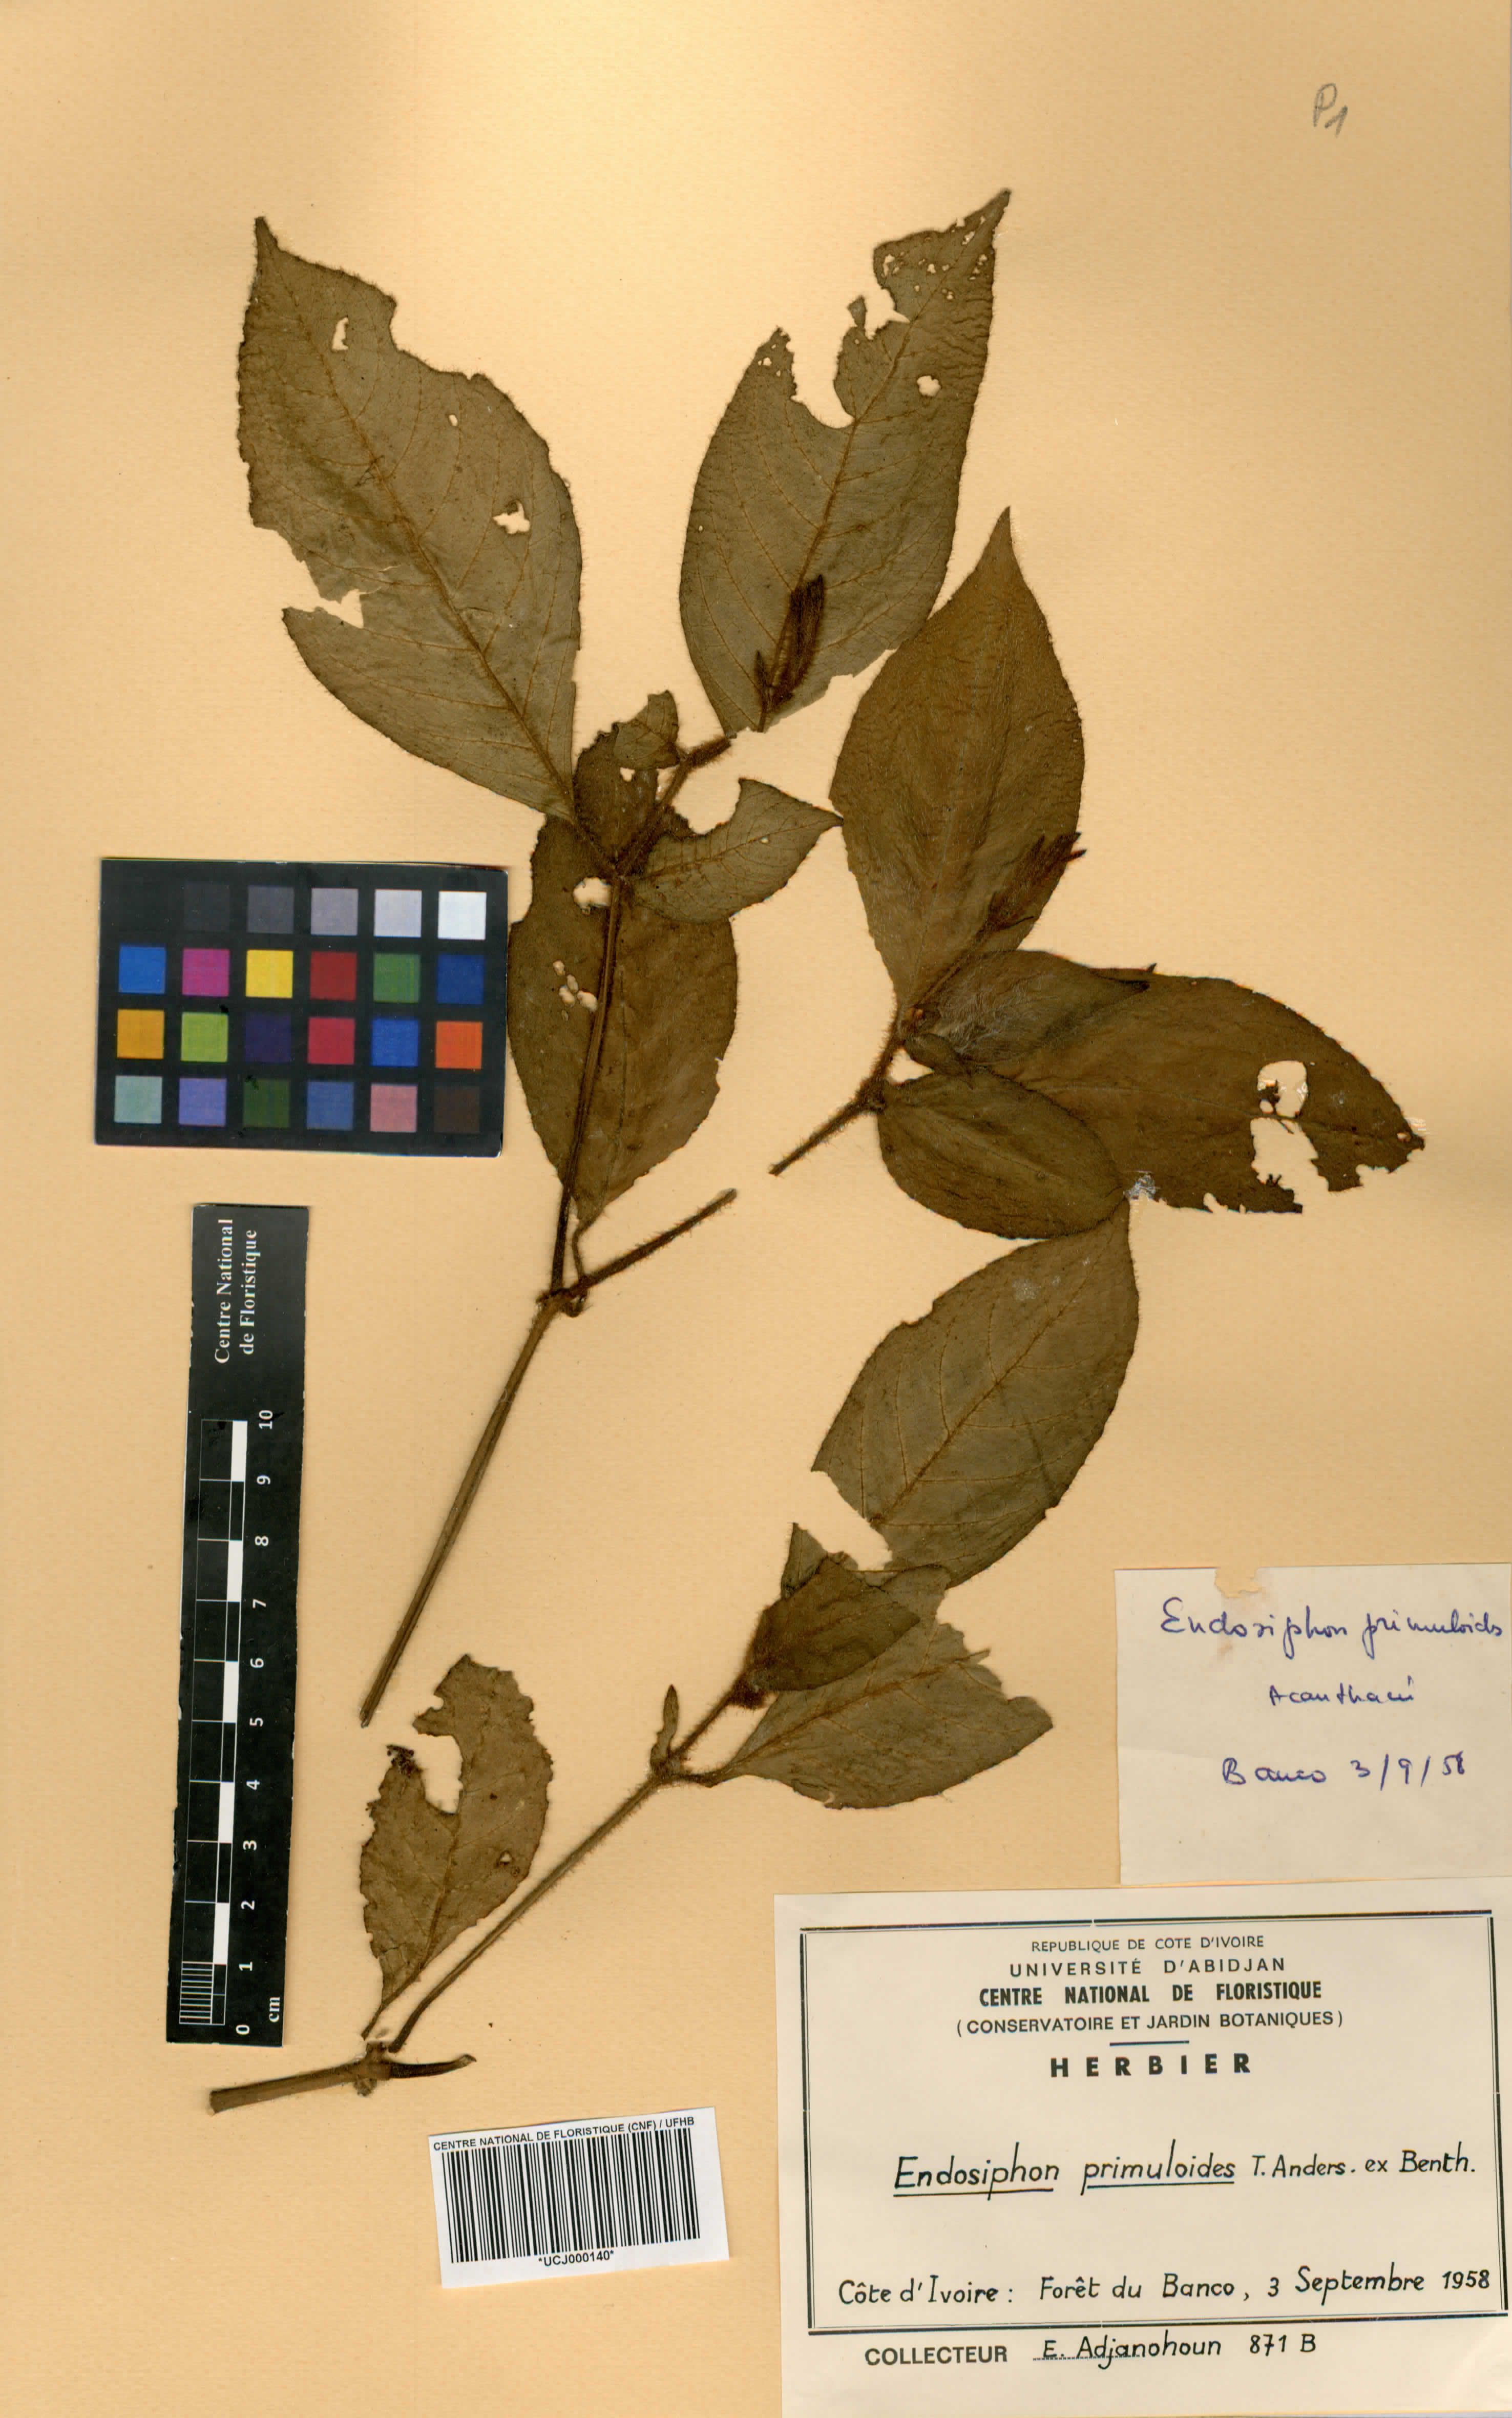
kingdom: Plantae
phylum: Tracheophyta
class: Magnoliopsida
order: Lamiales
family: Acanthaceae
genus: Ruellia
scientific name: Ruellia primuloides
